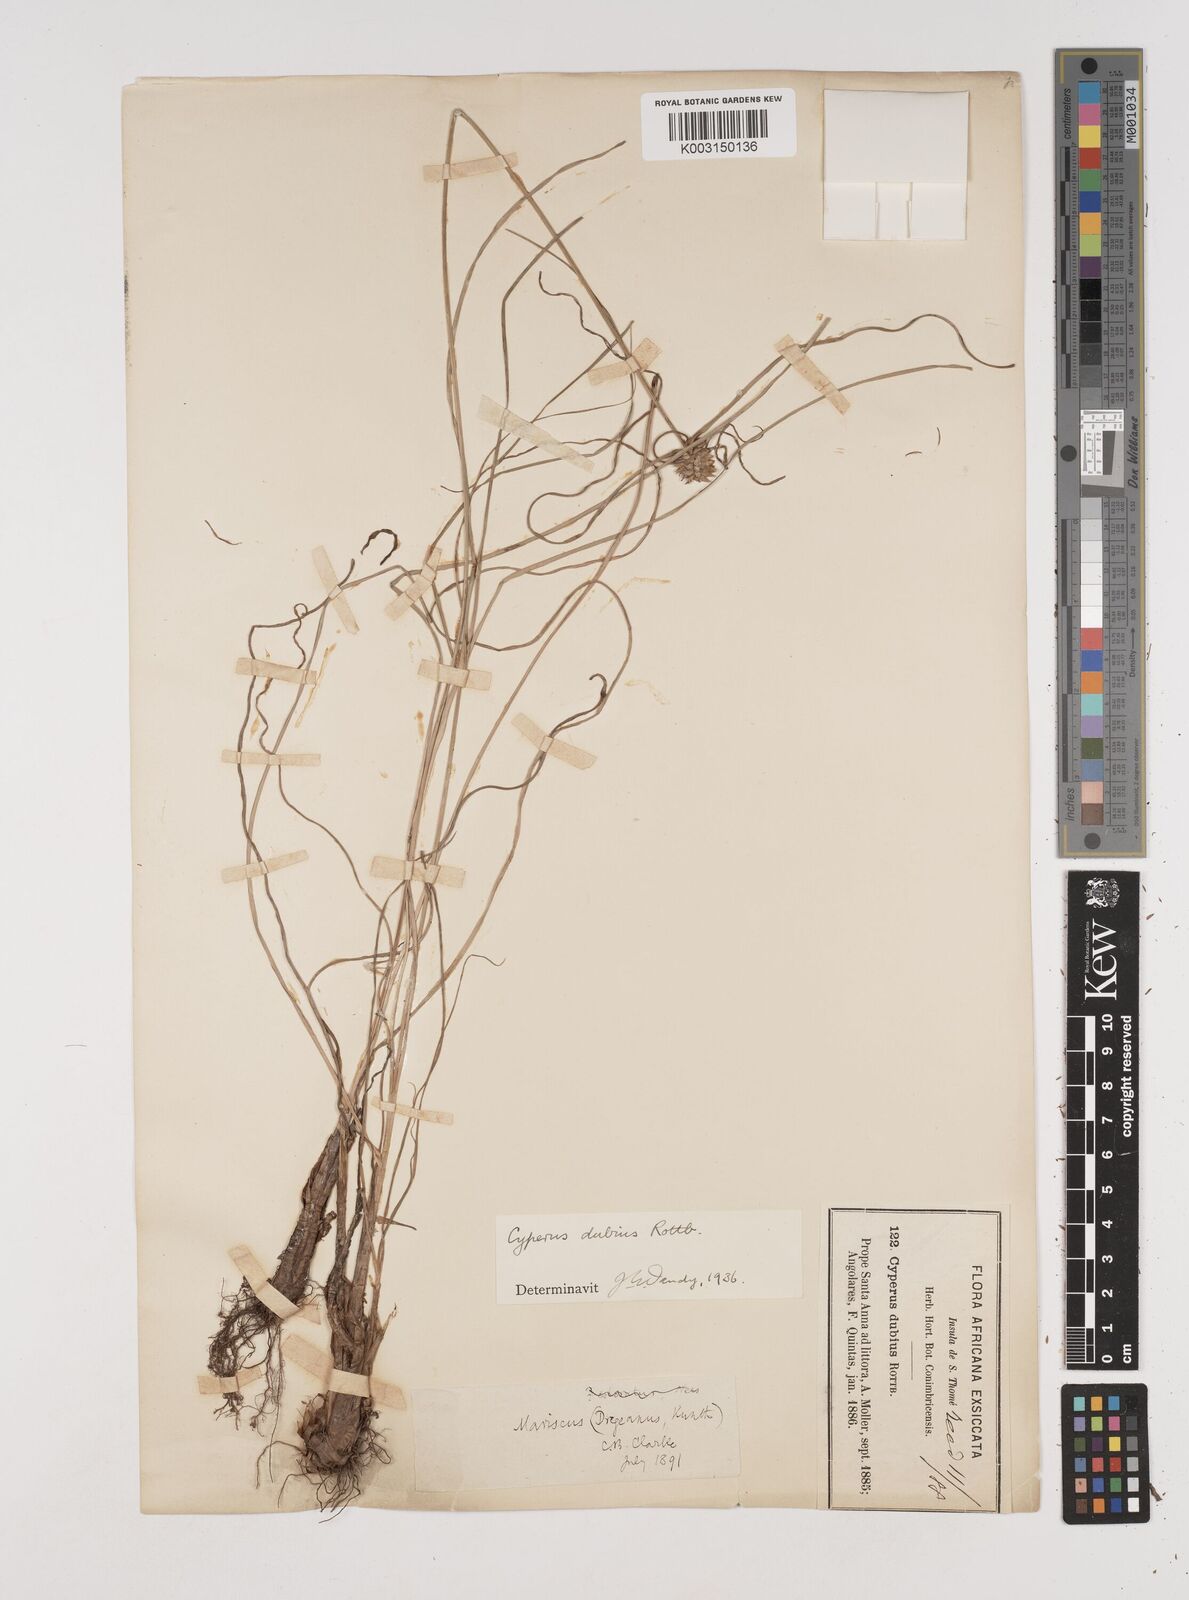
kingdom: Plantae
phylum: Tracheophyta
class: Liliopsida
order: Poales
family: Cyperaceae
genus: Cyperus
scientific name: Cyperus dubius
